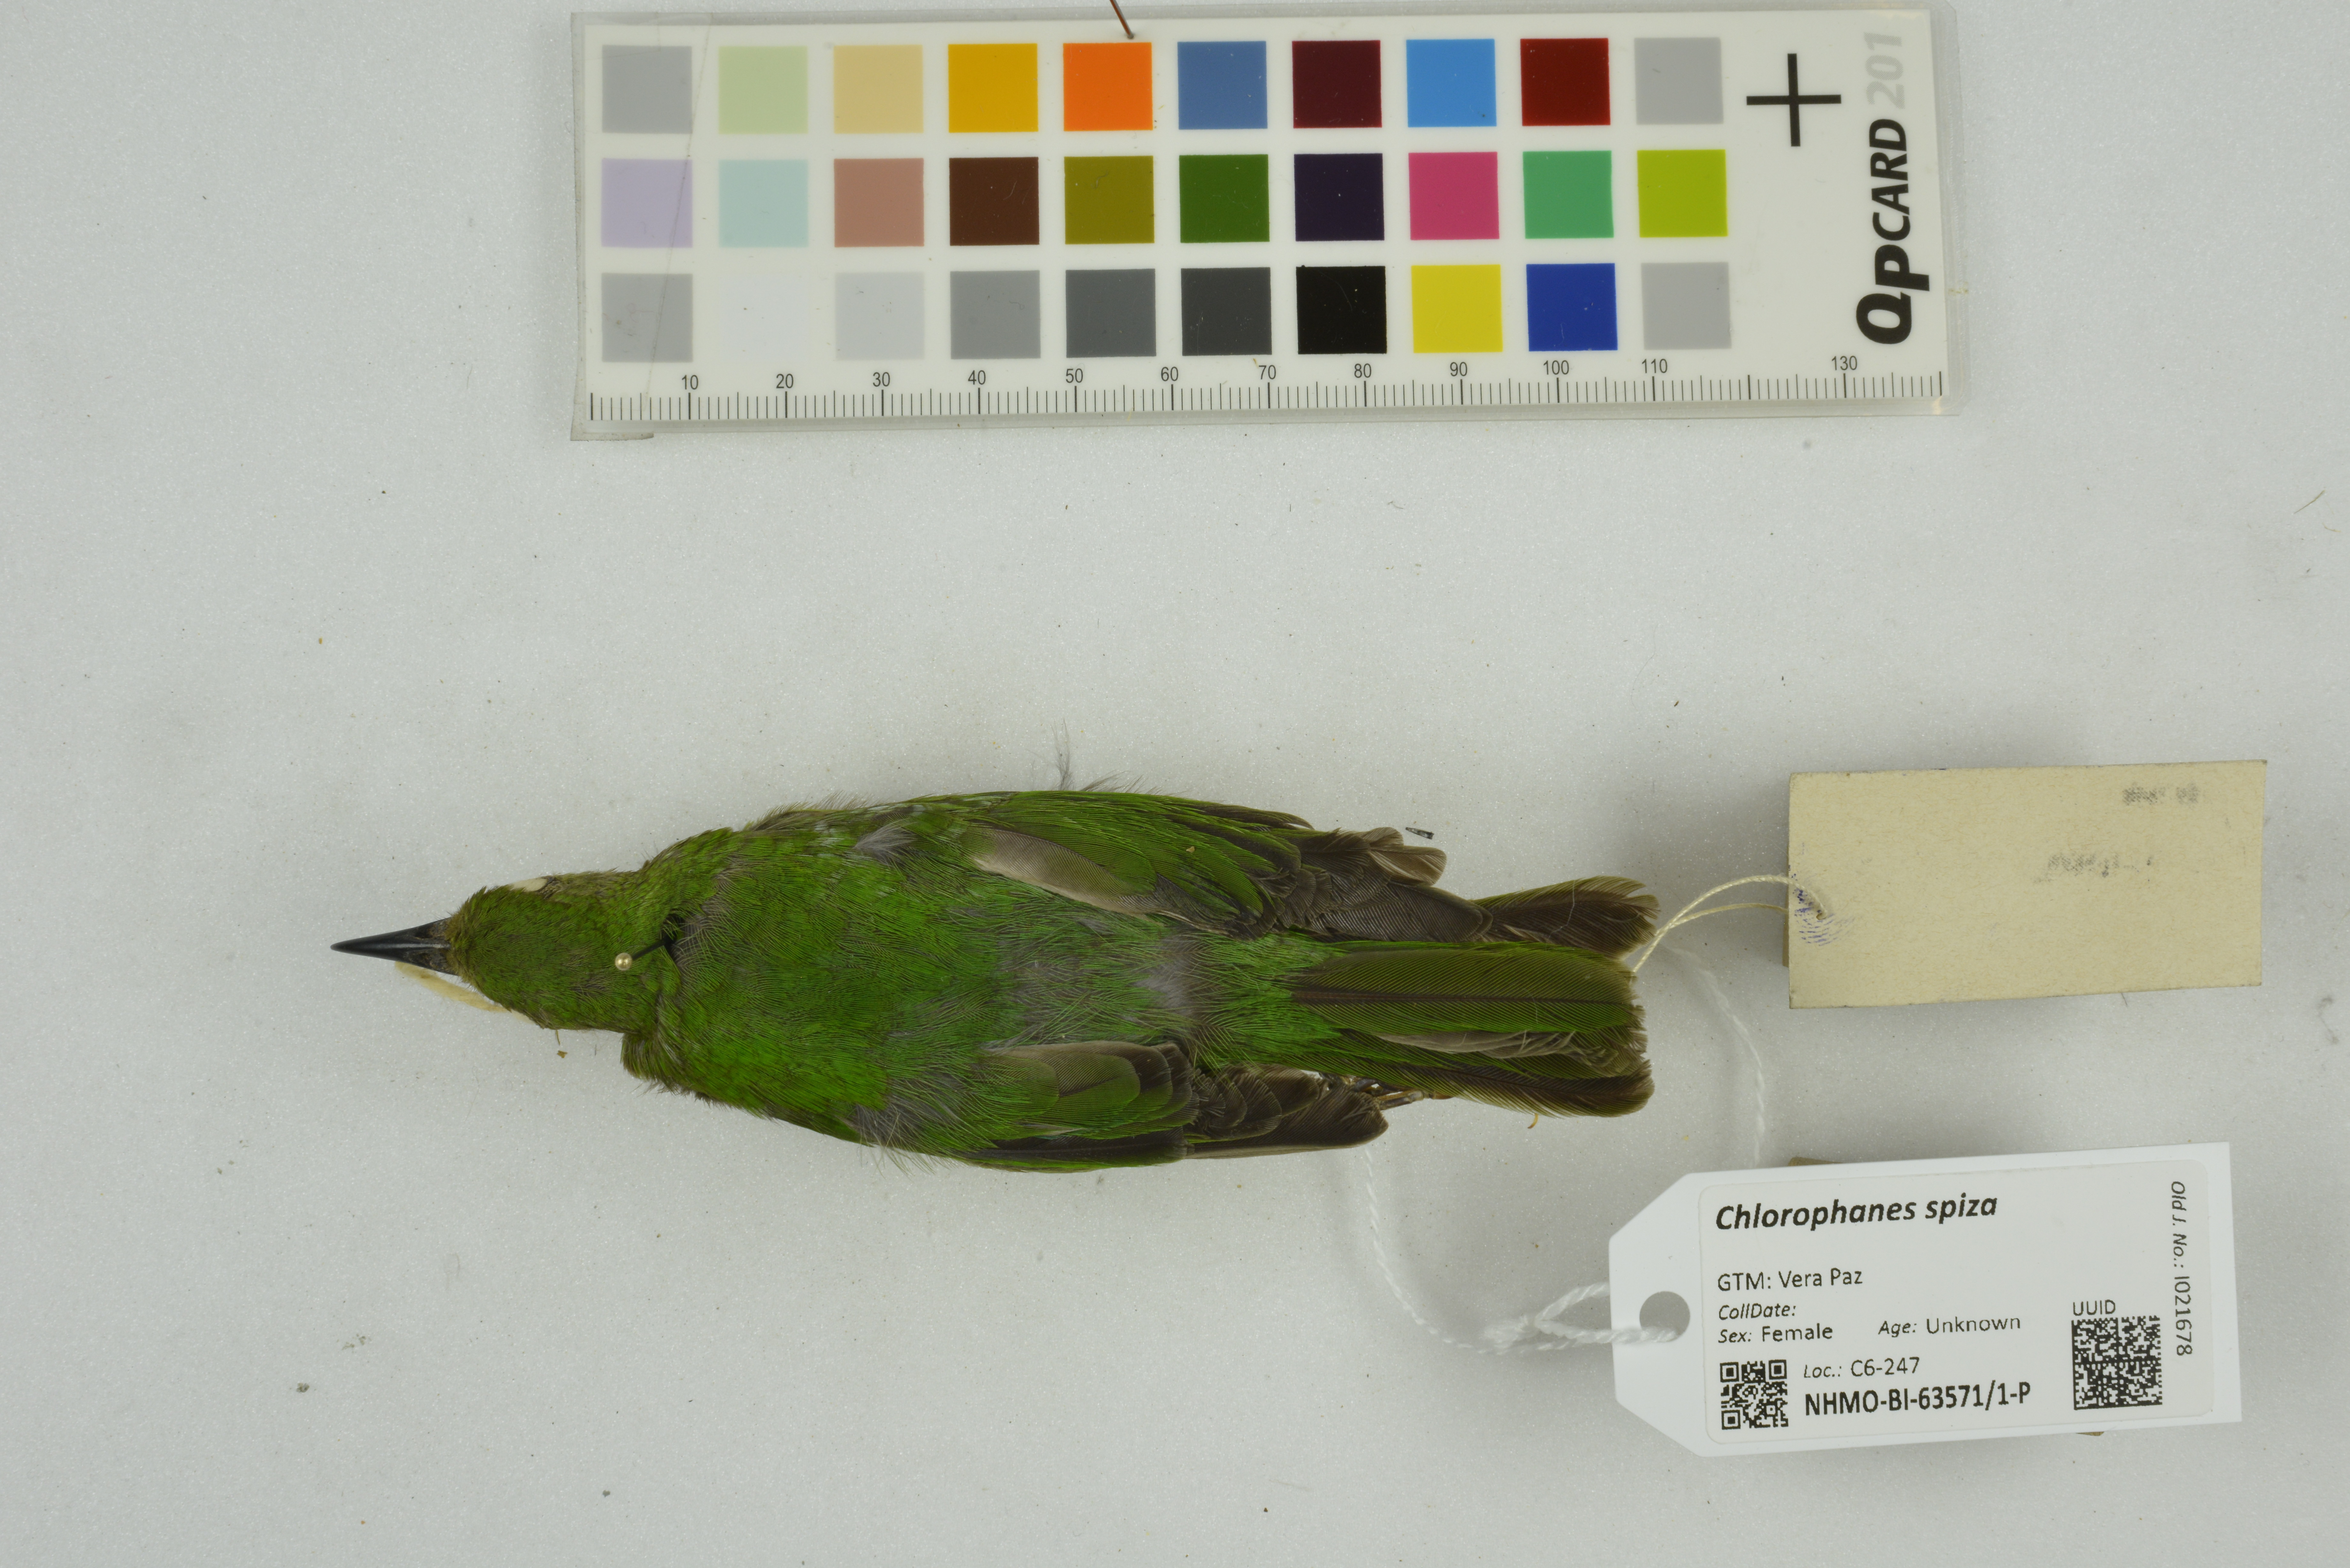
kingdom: Animalia
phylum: Chordata
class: Aves
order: Passeriformes
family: Thraupidae
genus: Chlorophanes
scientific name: Chlorophanes spiza
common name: Green honeycreeper
